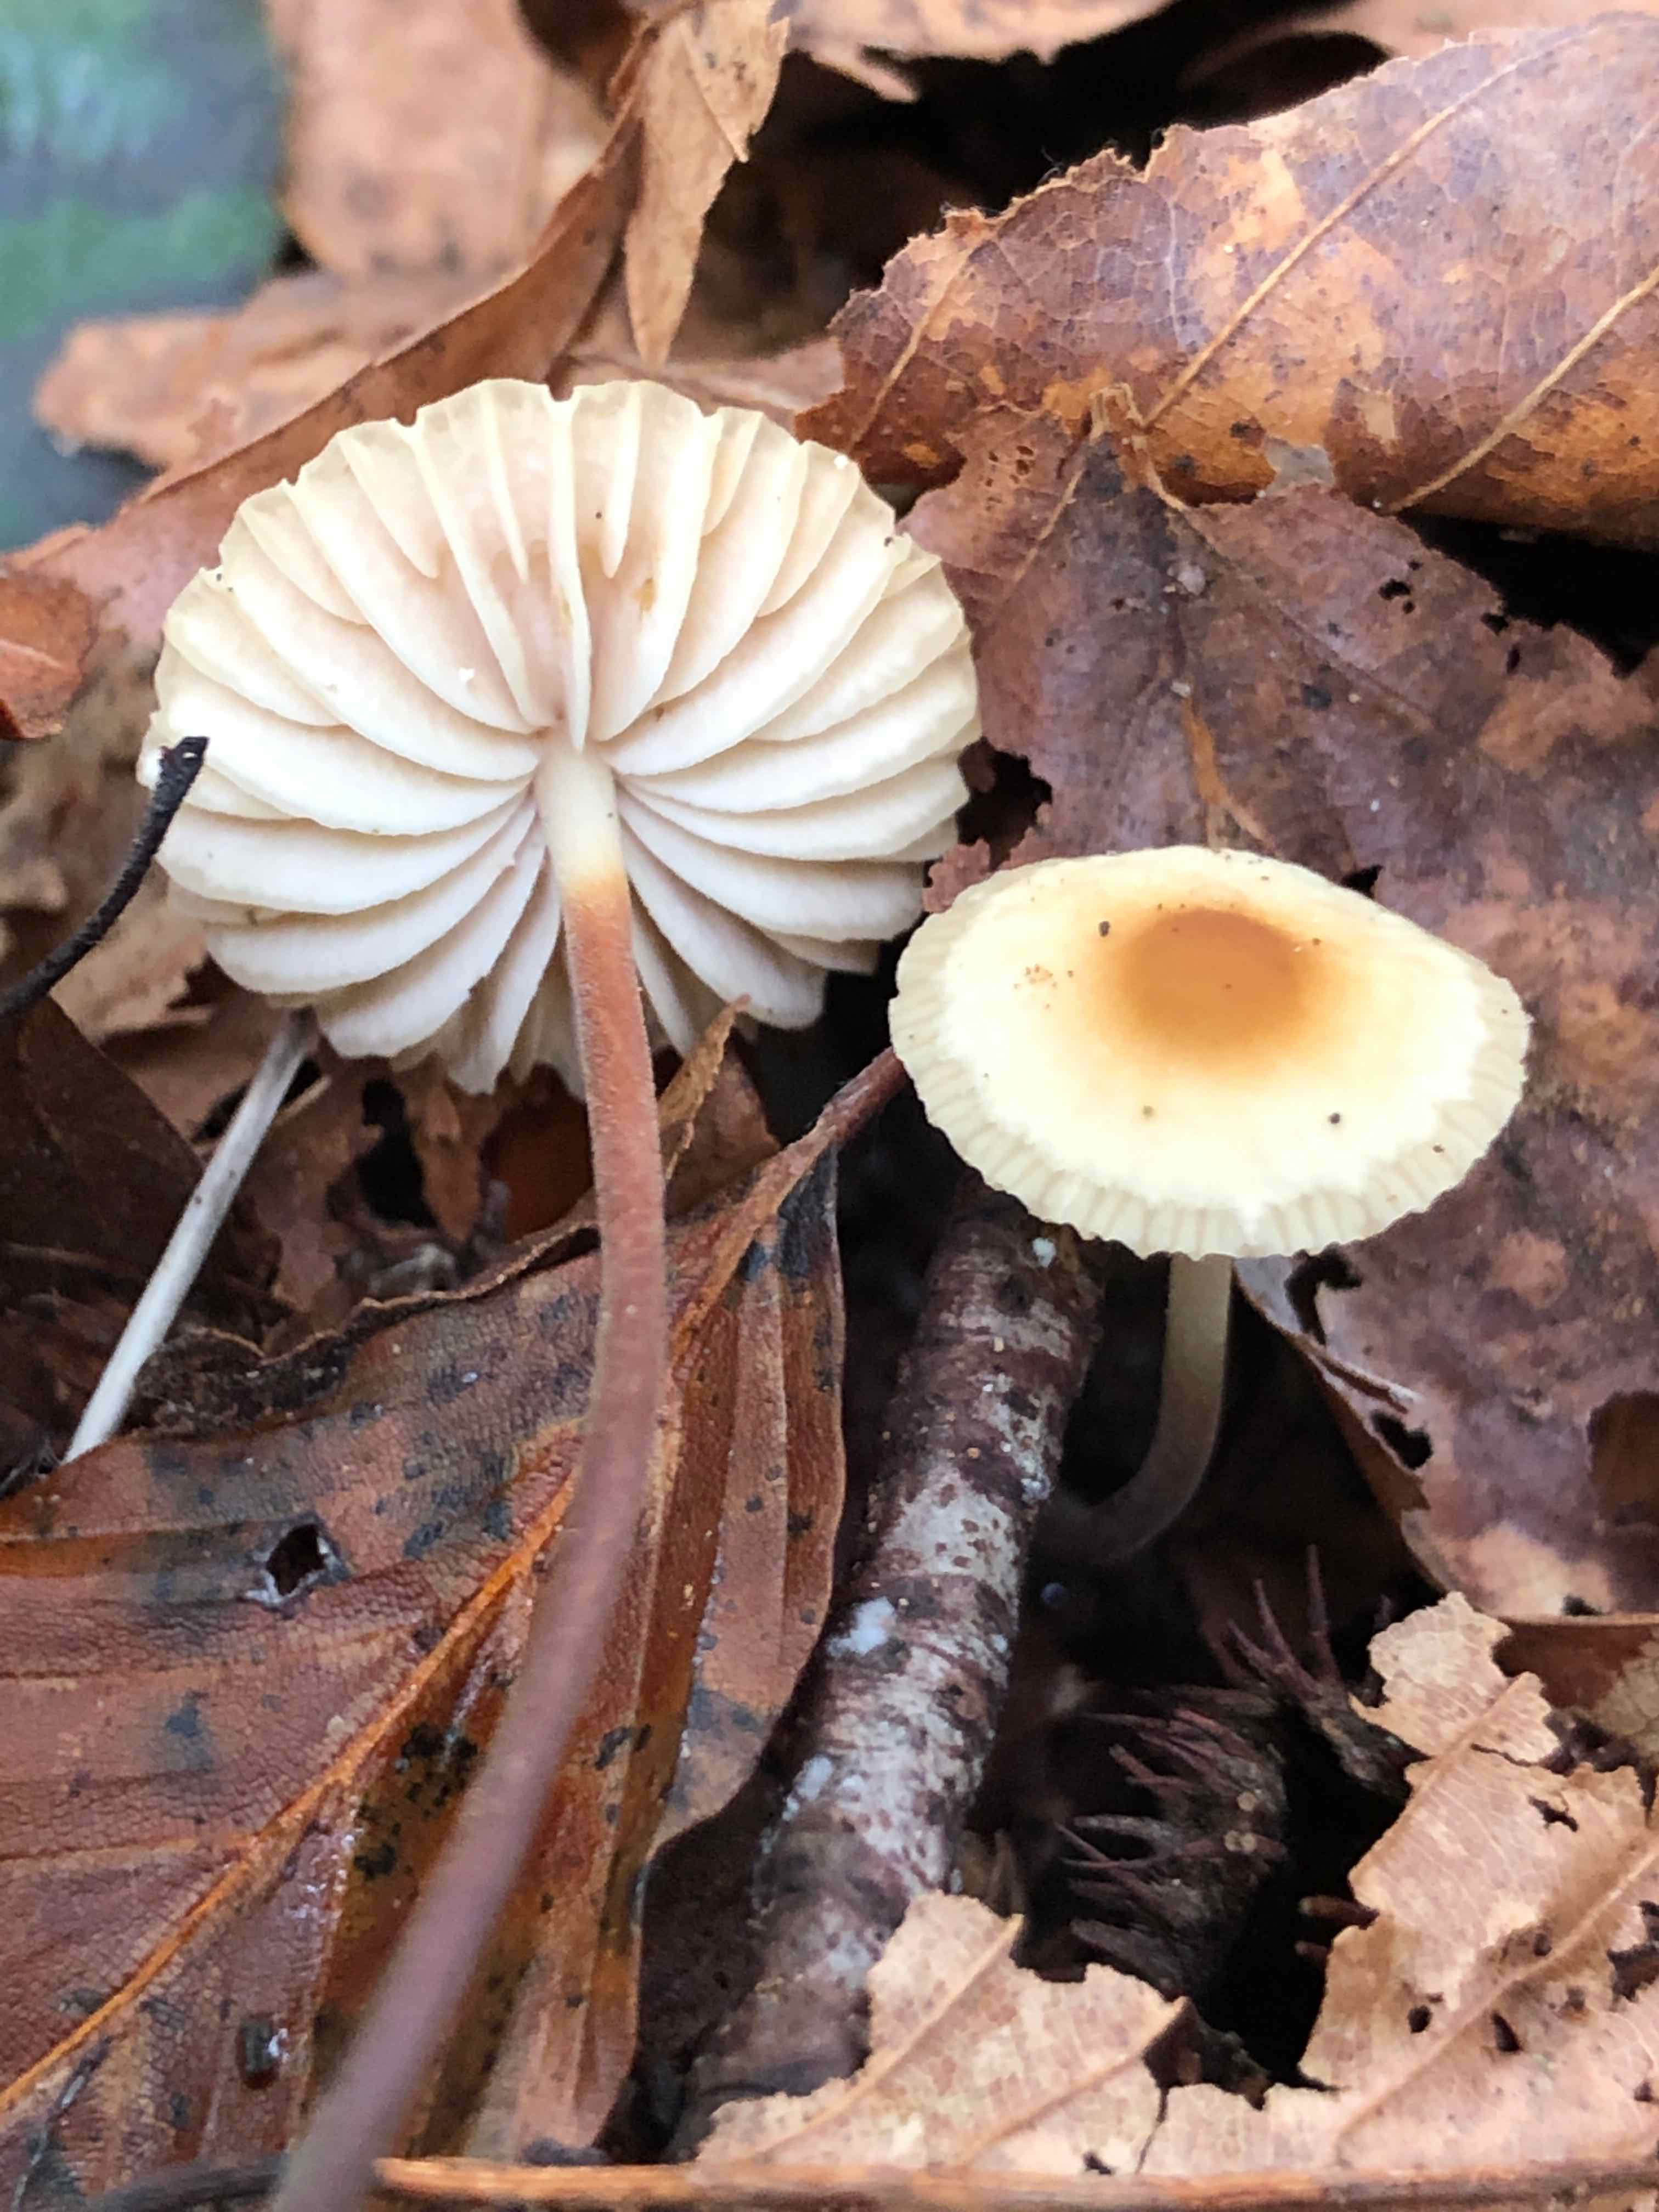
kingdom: Fungi
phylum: Basidiomycota
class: Agaricomycetes
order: Agaricales
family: Marasmiaceae
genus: Marasmius
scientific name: Marasmius torquescens
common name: filtfodet bruskhat
